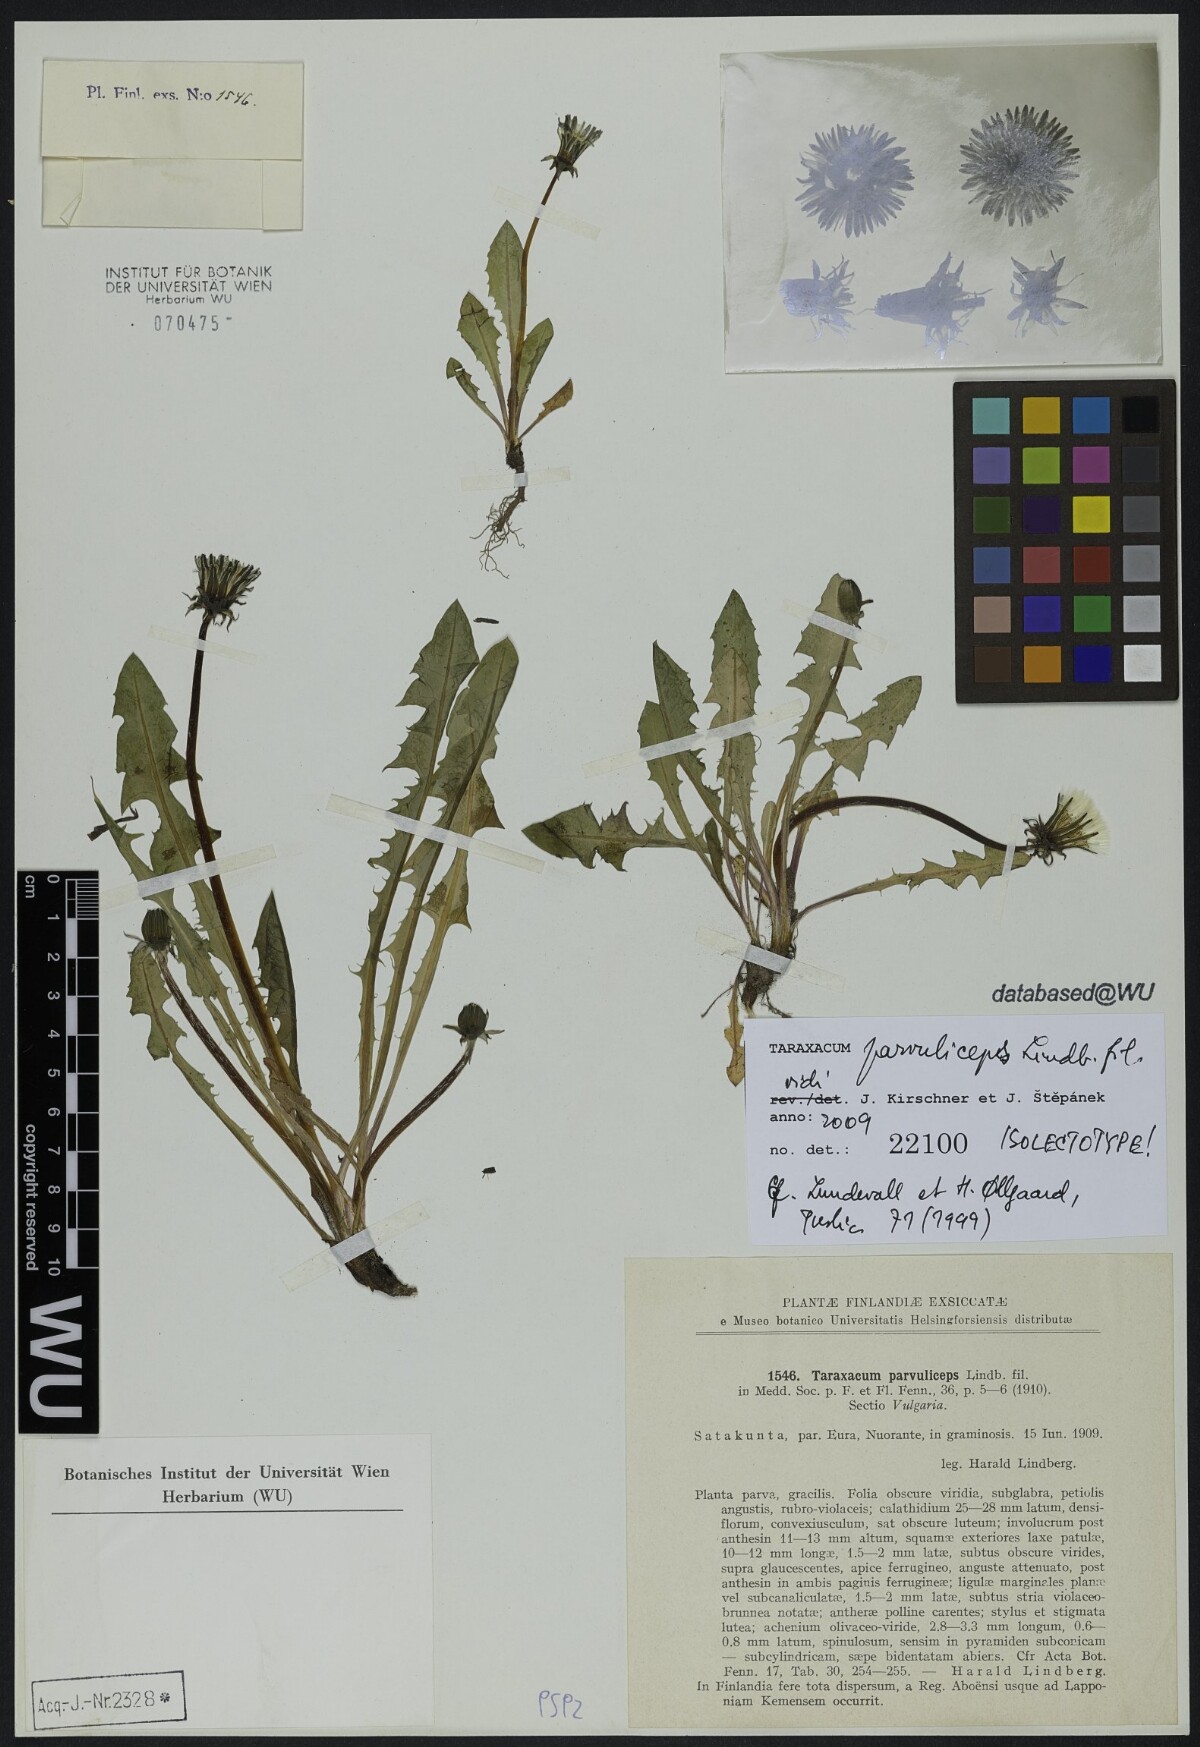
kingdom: Plantae
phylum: Tracheophyta
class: Magnoliopsida
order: Asterales
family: Asteraceae
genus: Taraxacum
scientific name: Taraxacum laceratum
